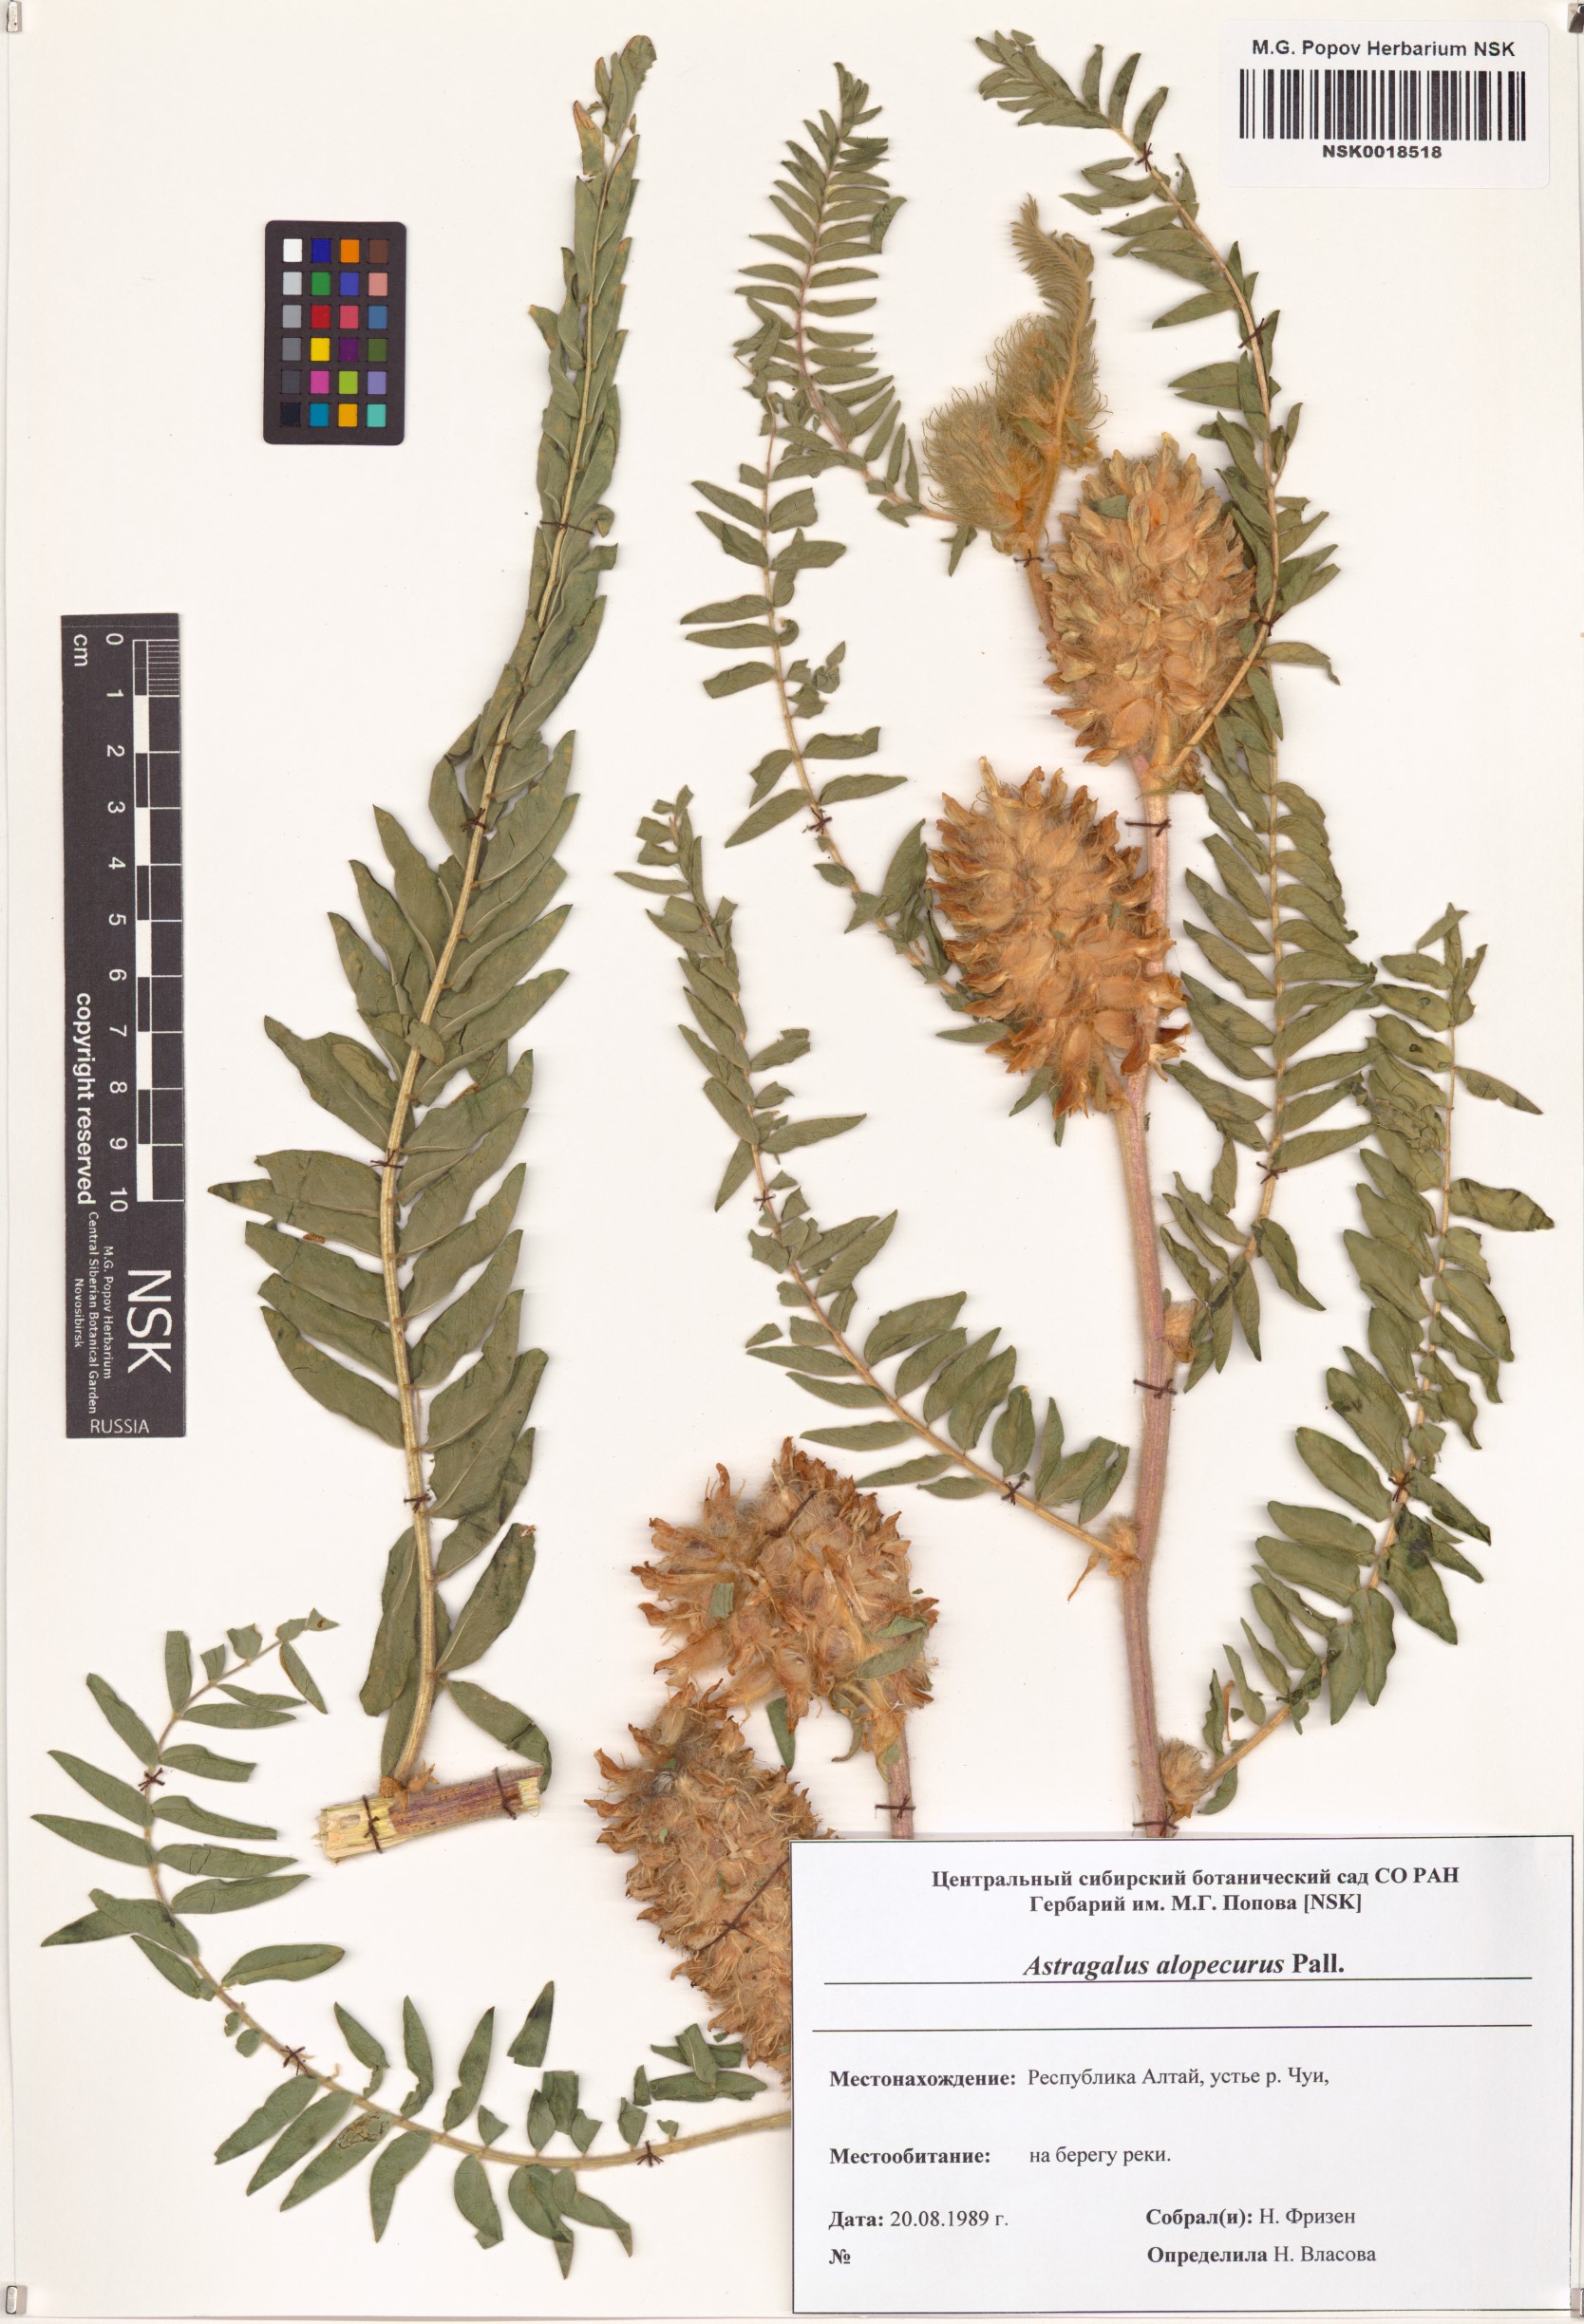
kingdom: Plantae
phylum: Tracheophyta
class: Magnoliopsida
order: Fabales
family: Fabaceae
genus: Astragalus
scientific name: Astragalus alopecurus
